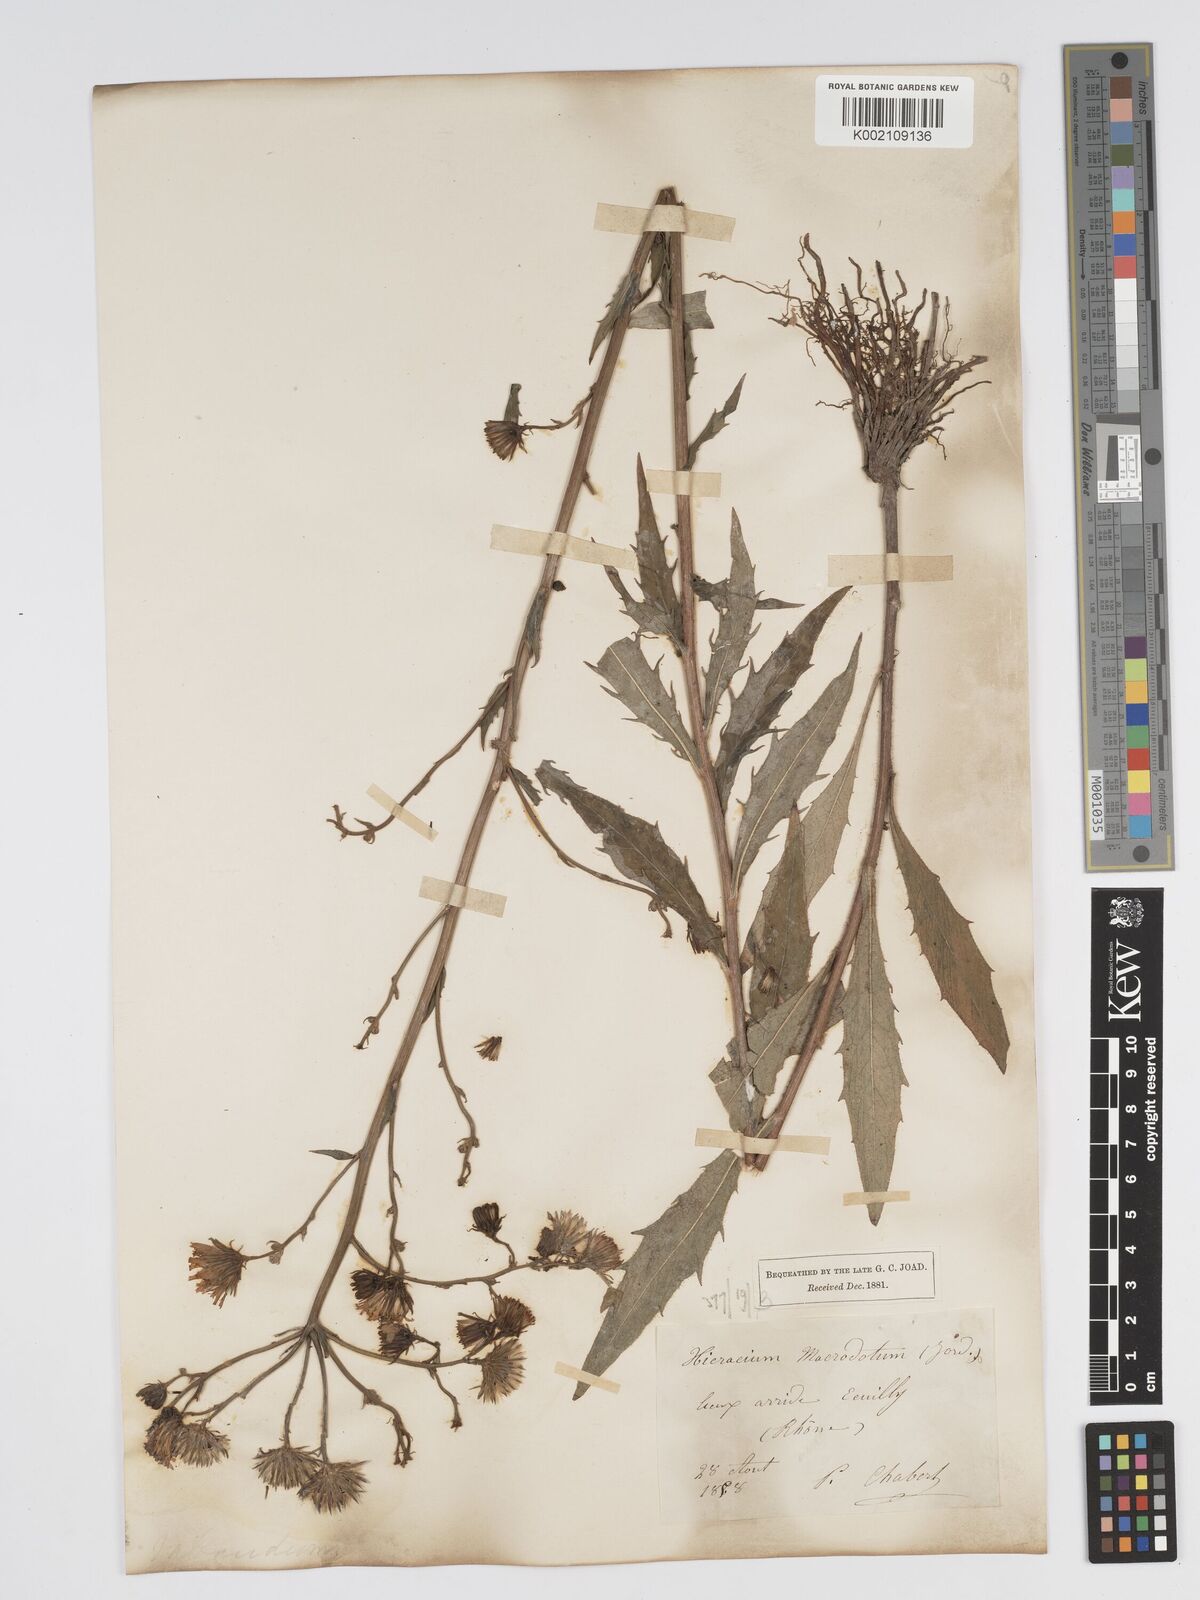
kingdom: Plantae
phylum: Tracheophyta
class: Magnoliopsida
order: Asterales
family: Asteraceae
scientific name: Asteraceae
